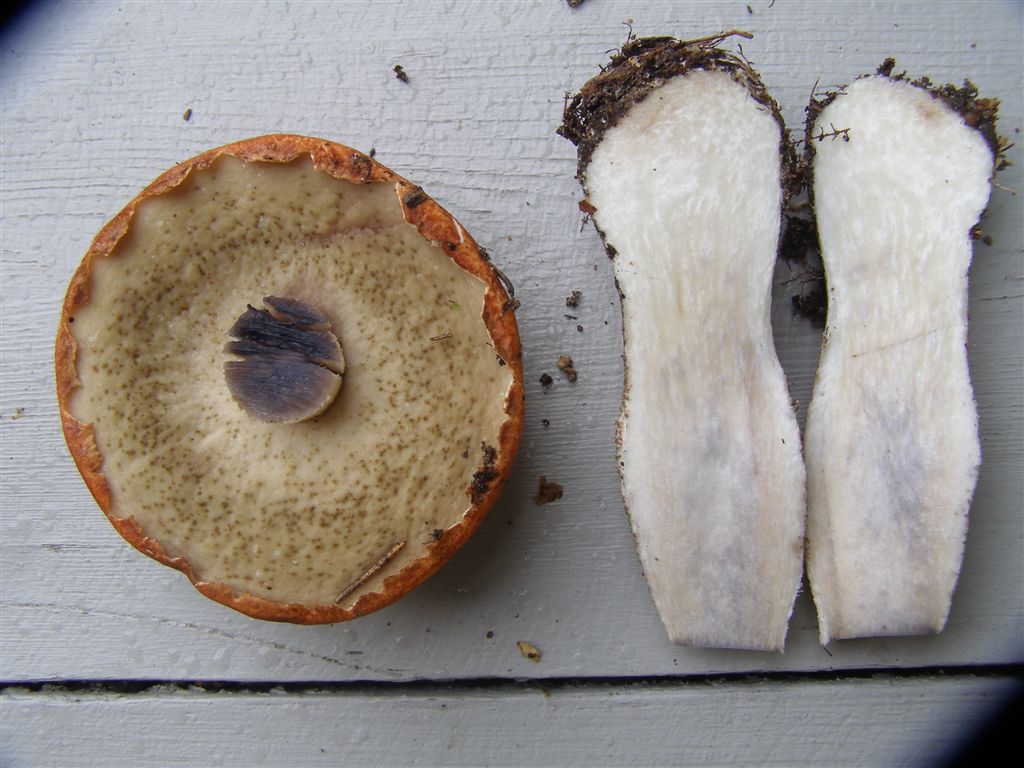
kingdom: Fungi
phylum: Basidiomycota
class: Agaricomycetes
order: Boletales
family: Boletaceae
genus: Leccinum
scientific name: Leccinum vulpinum
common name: fyrre-skælrørhat
